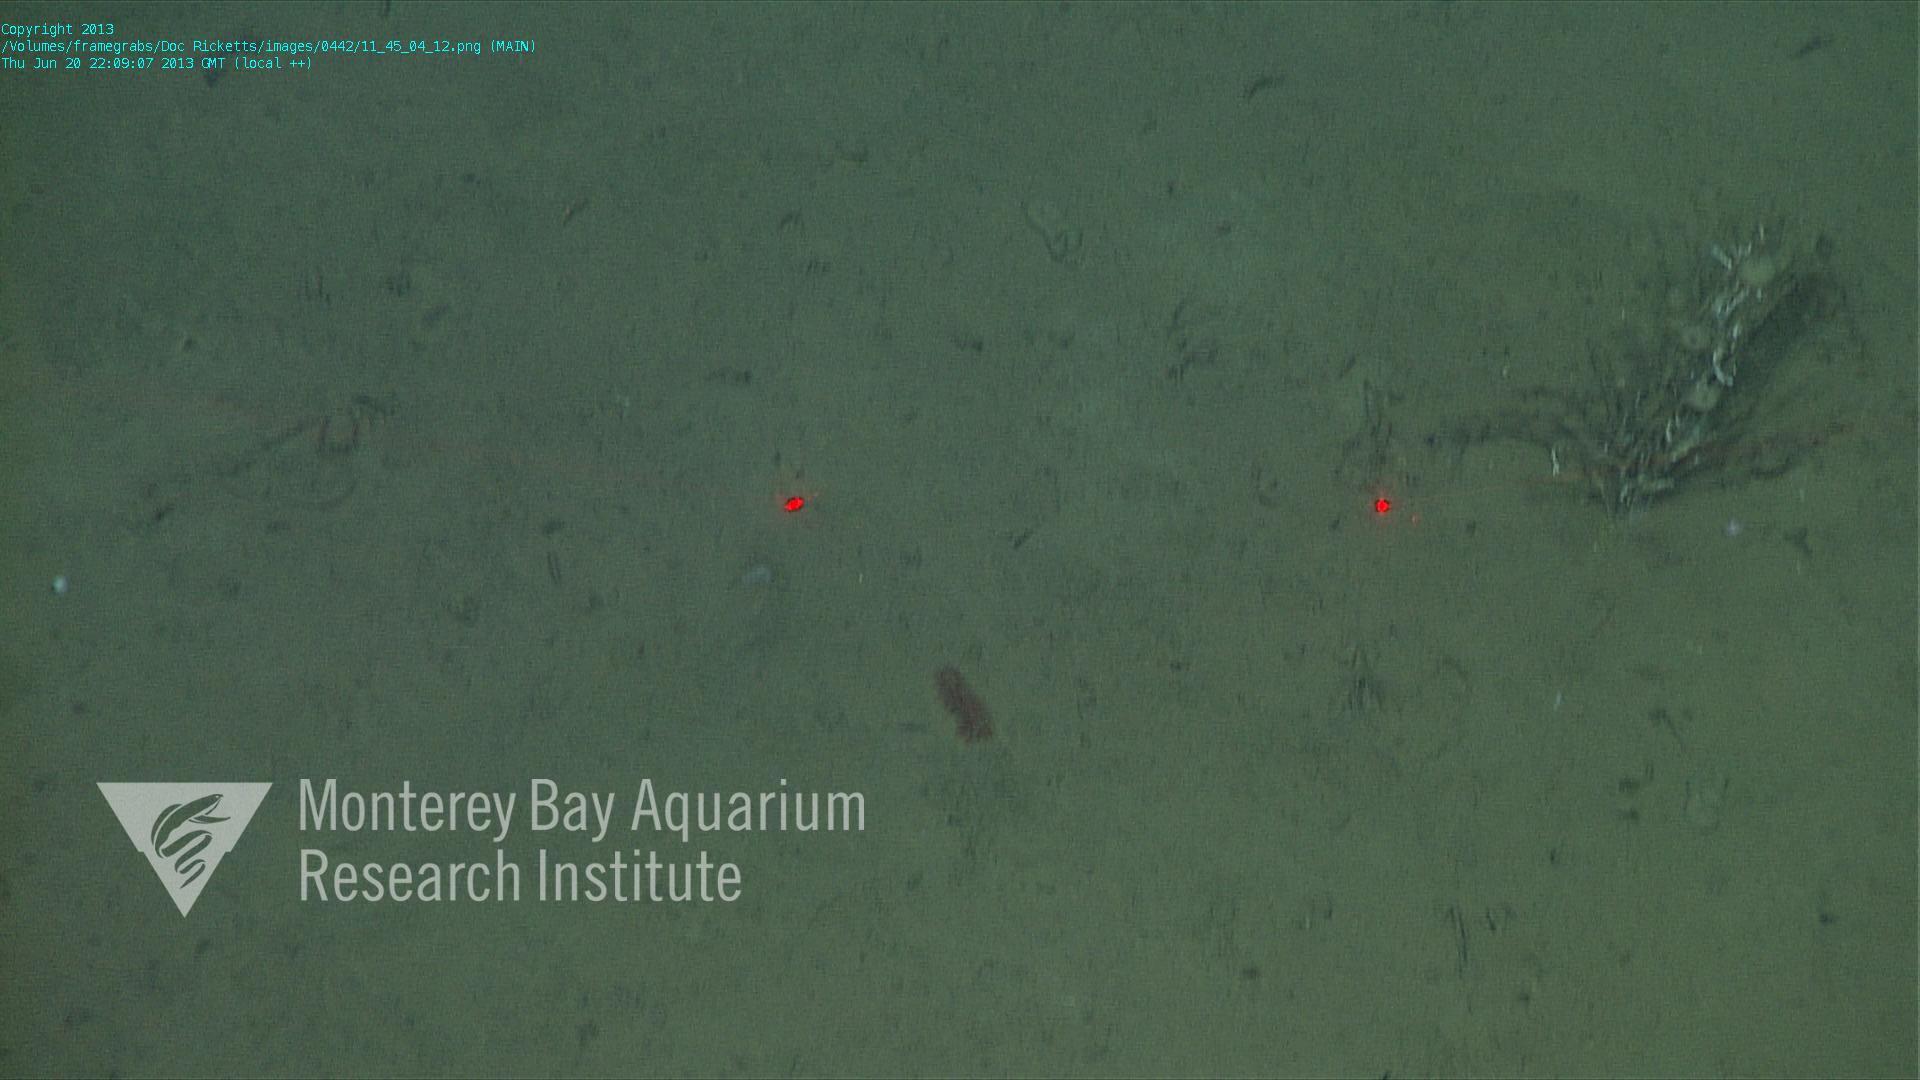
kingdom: Animalia
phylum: Porifera
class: Hexactinellida
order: Lyssacinosida
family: Rossellidae
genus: Bathydorus
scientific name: Bathydorus spinosus
